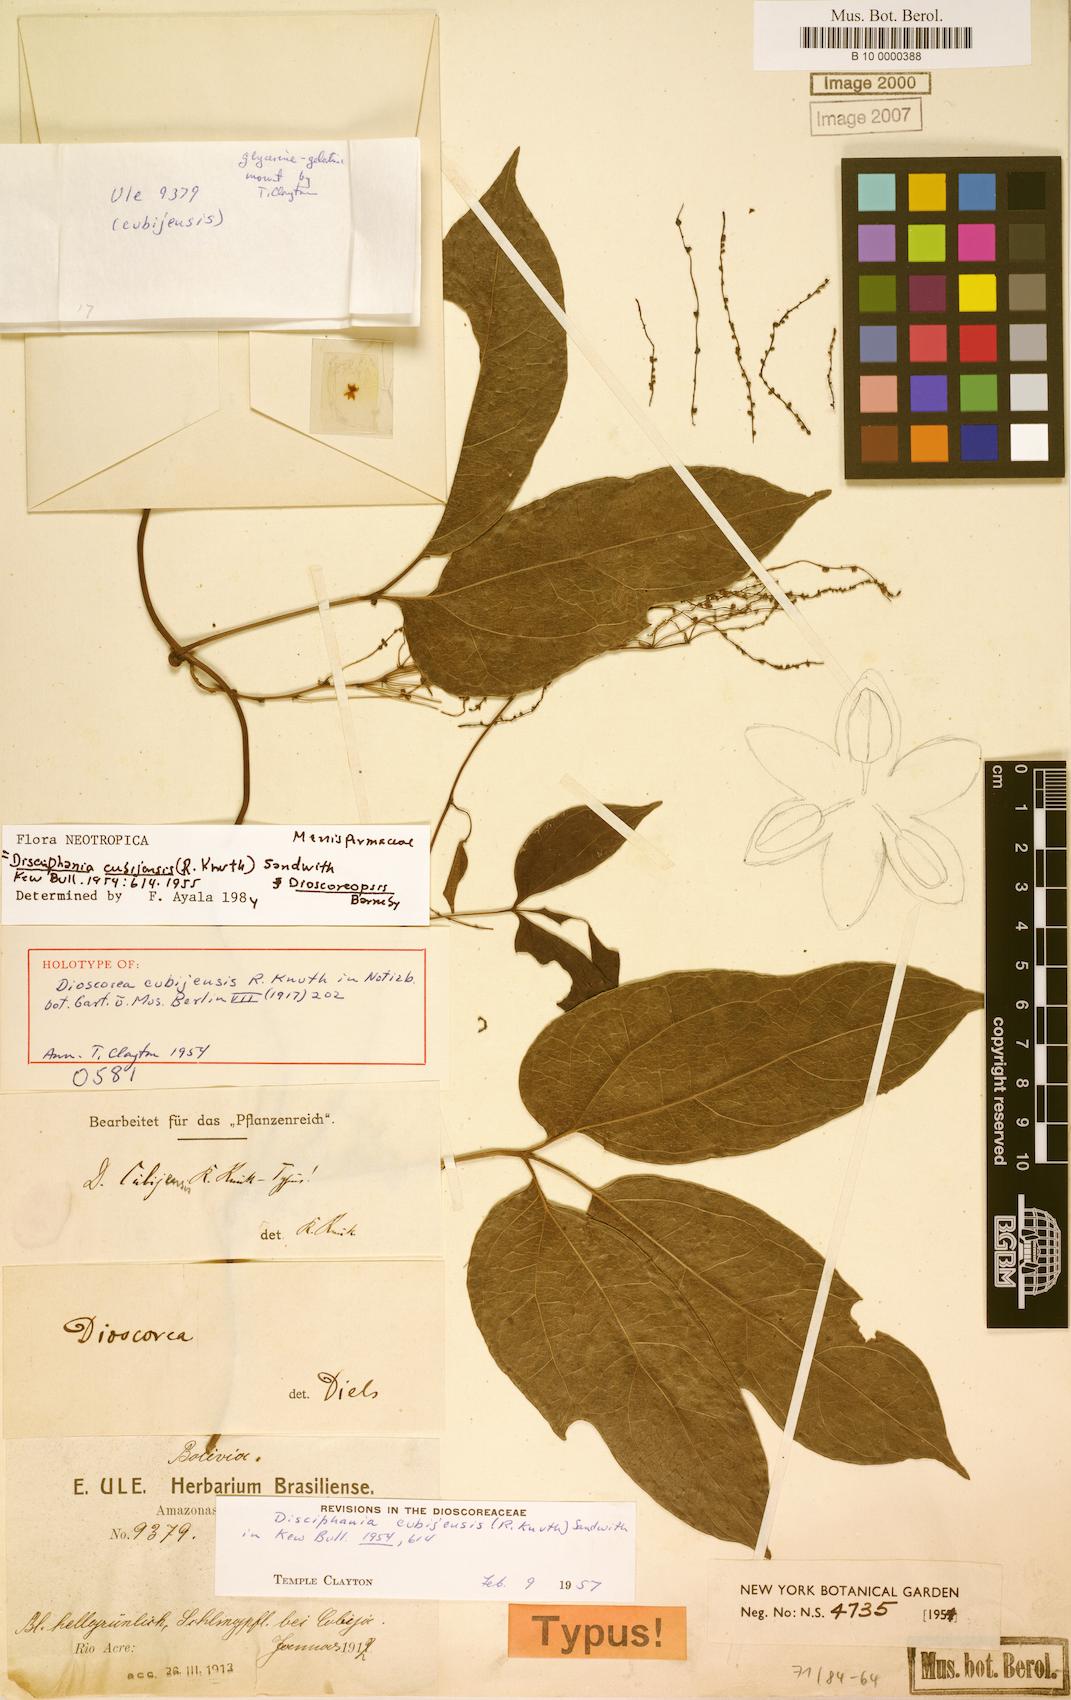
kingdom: Plantae
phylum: Tracheophyta
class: Magnoliopsida
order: Ranunculales
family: Menispermaceae
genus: Disciphania
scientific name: Disciphania cubijensis
